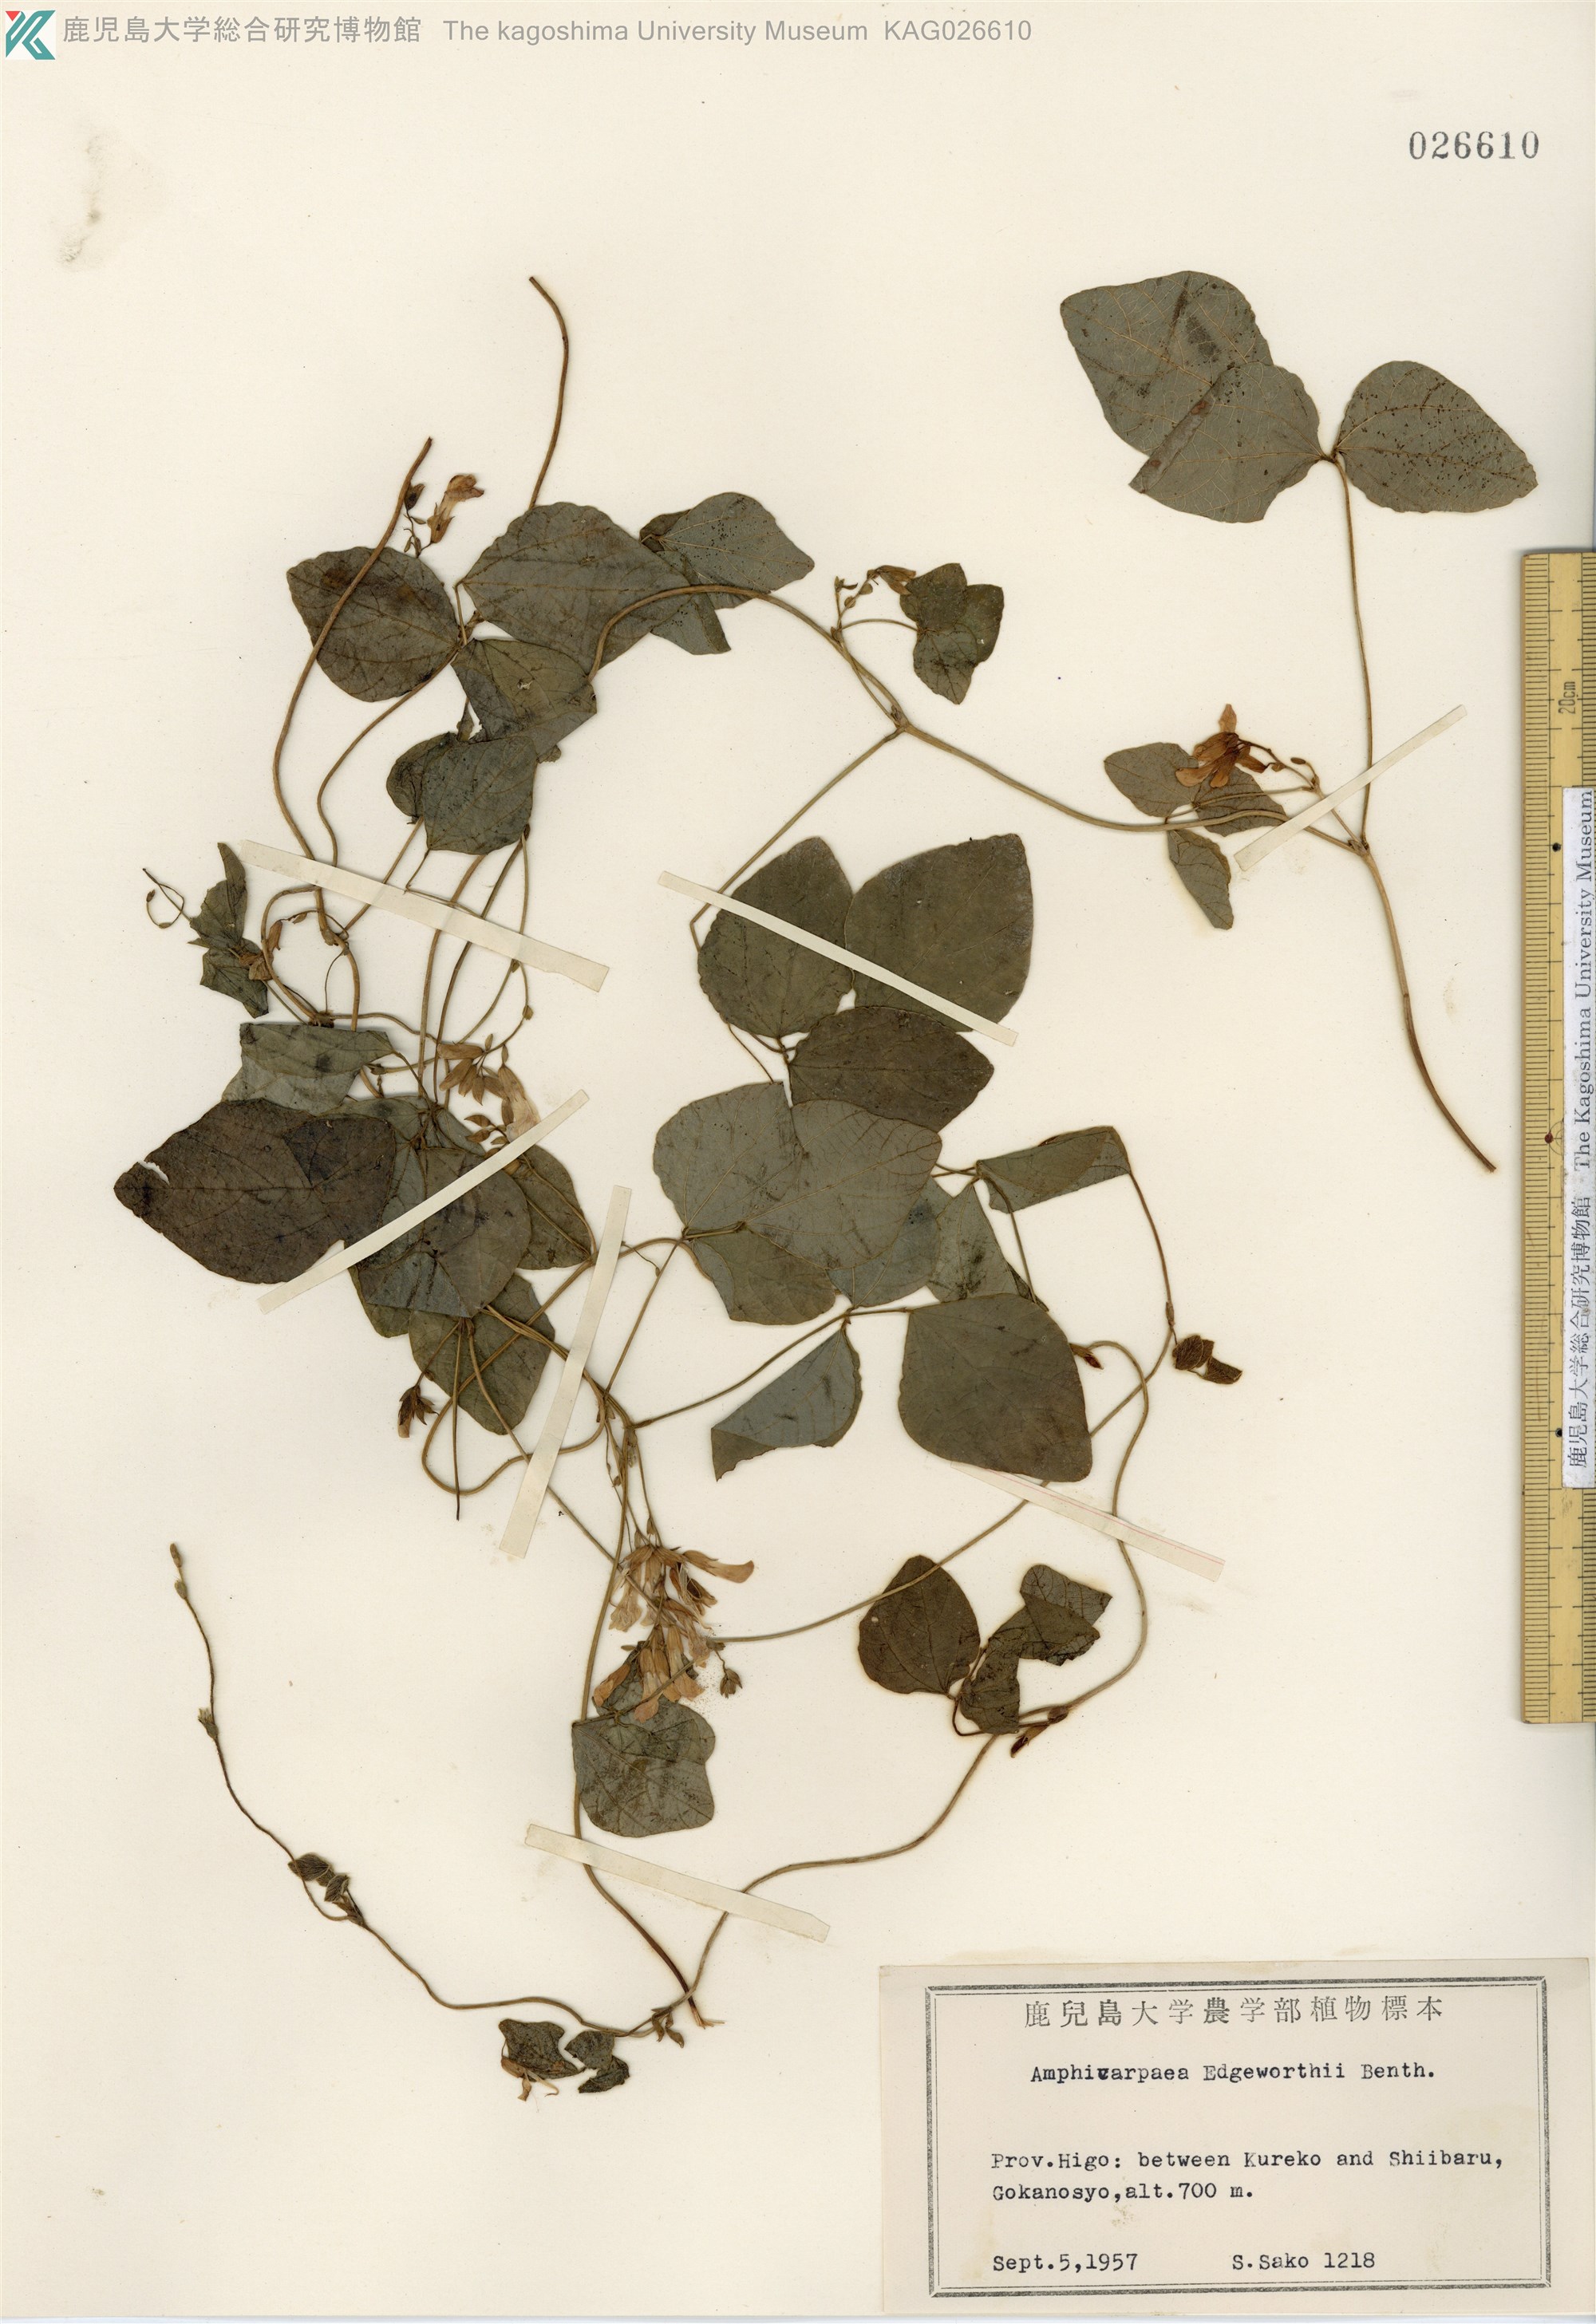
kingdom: Plantae
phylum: Tracheophyta
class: Magnoliopsida
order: Fabales
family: Fabaceae
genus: Amphicarpaea
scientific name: Amphicarpaea edgeworthii
